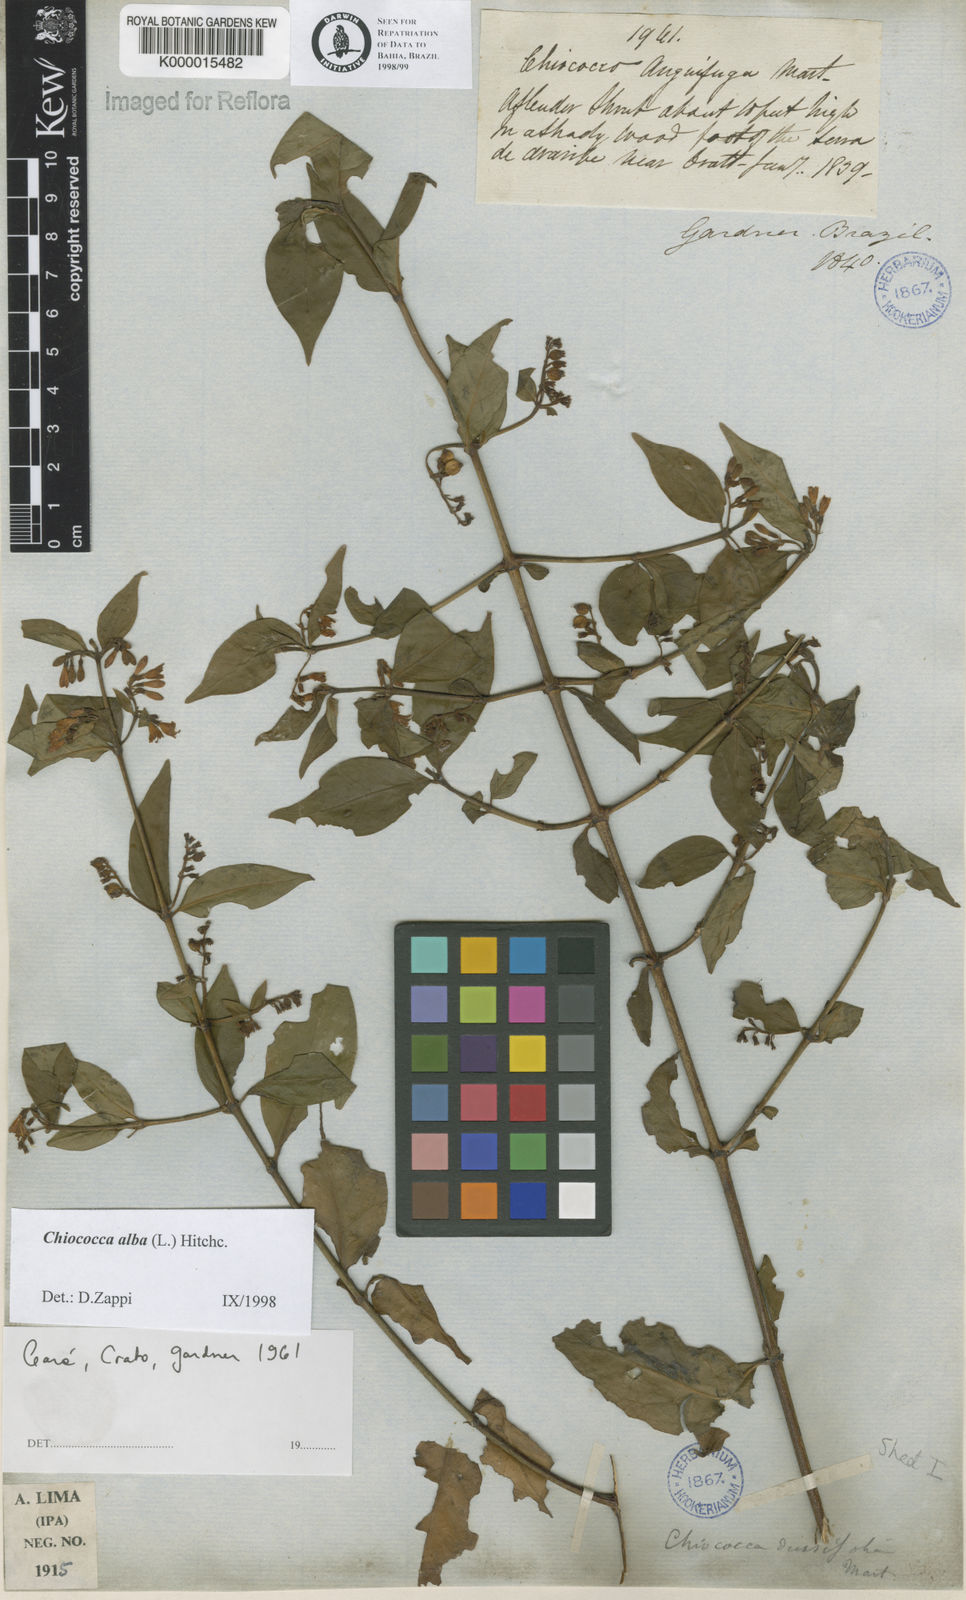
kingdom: Plantae
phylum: Tracheophyta
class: Magnoliopsida
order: Gentianales
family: Rubiaceae
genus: Chiococca
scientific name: Chiococca alba
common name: Snowberry
